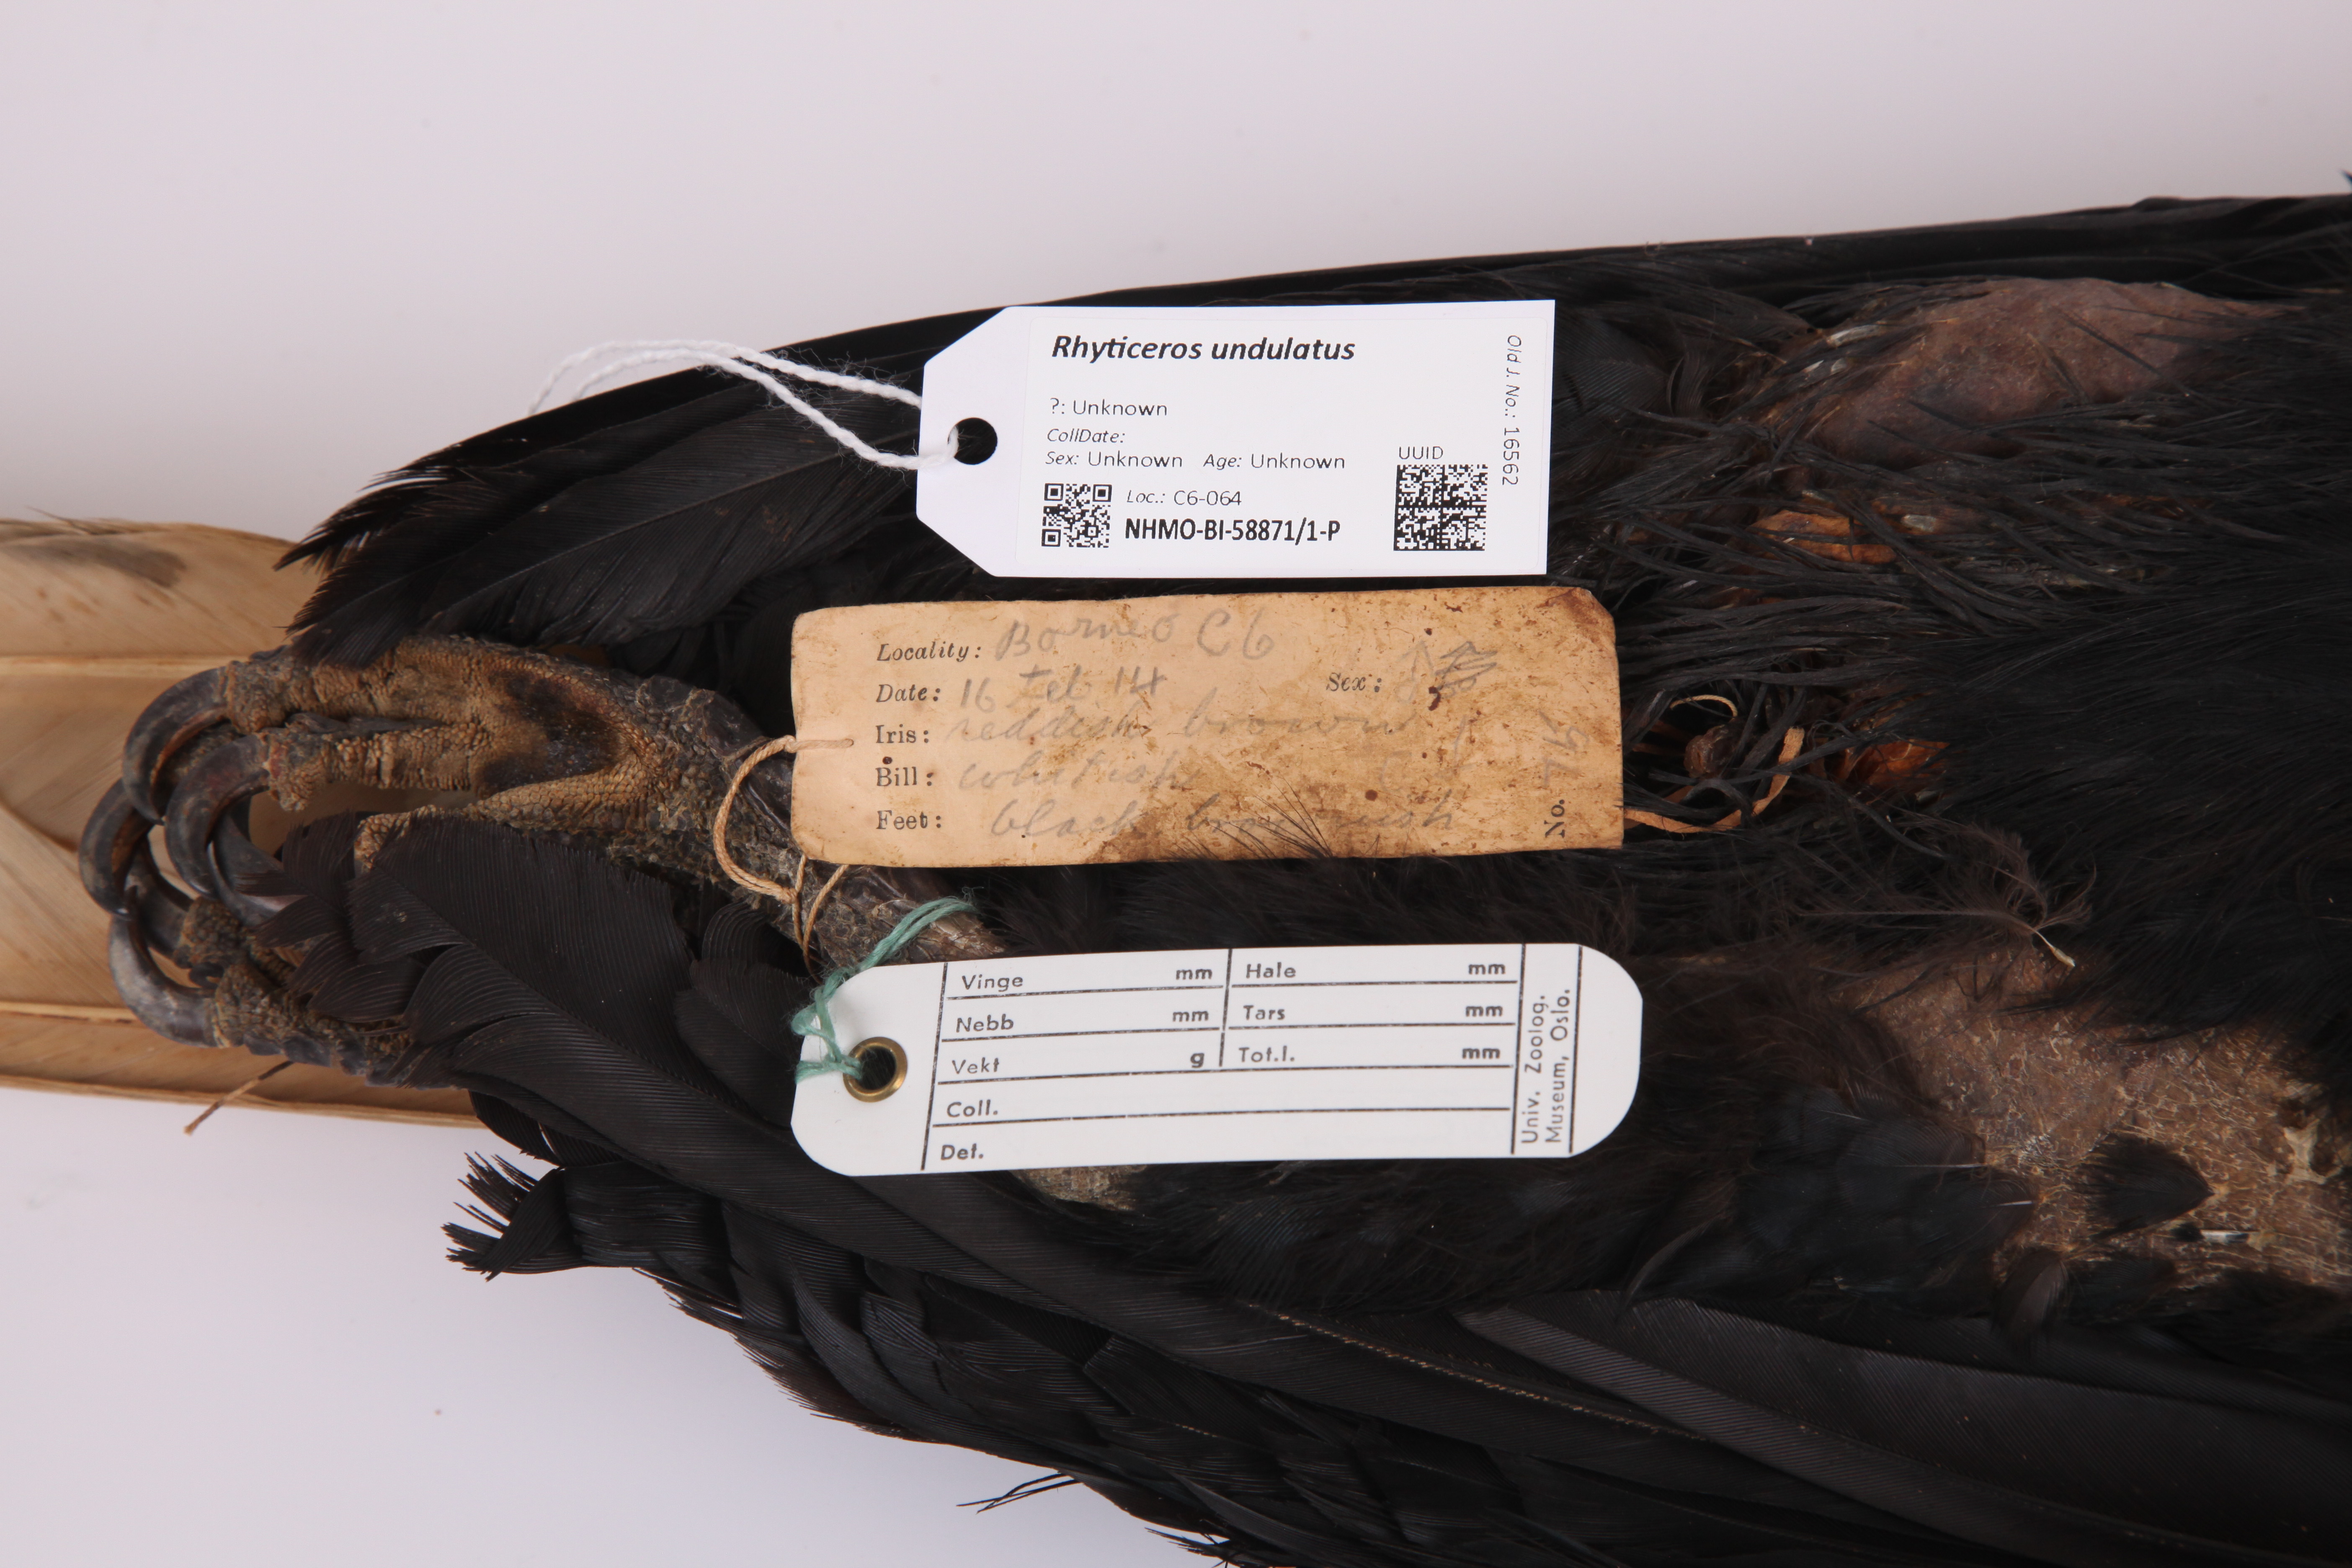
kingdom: Animalia
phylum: Chordata
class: Aves
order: Bucerotiformes
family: Bucerotidae
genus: Rhyticeros
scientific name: Rhyticeros undulatus
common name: Wreathed hornbill
